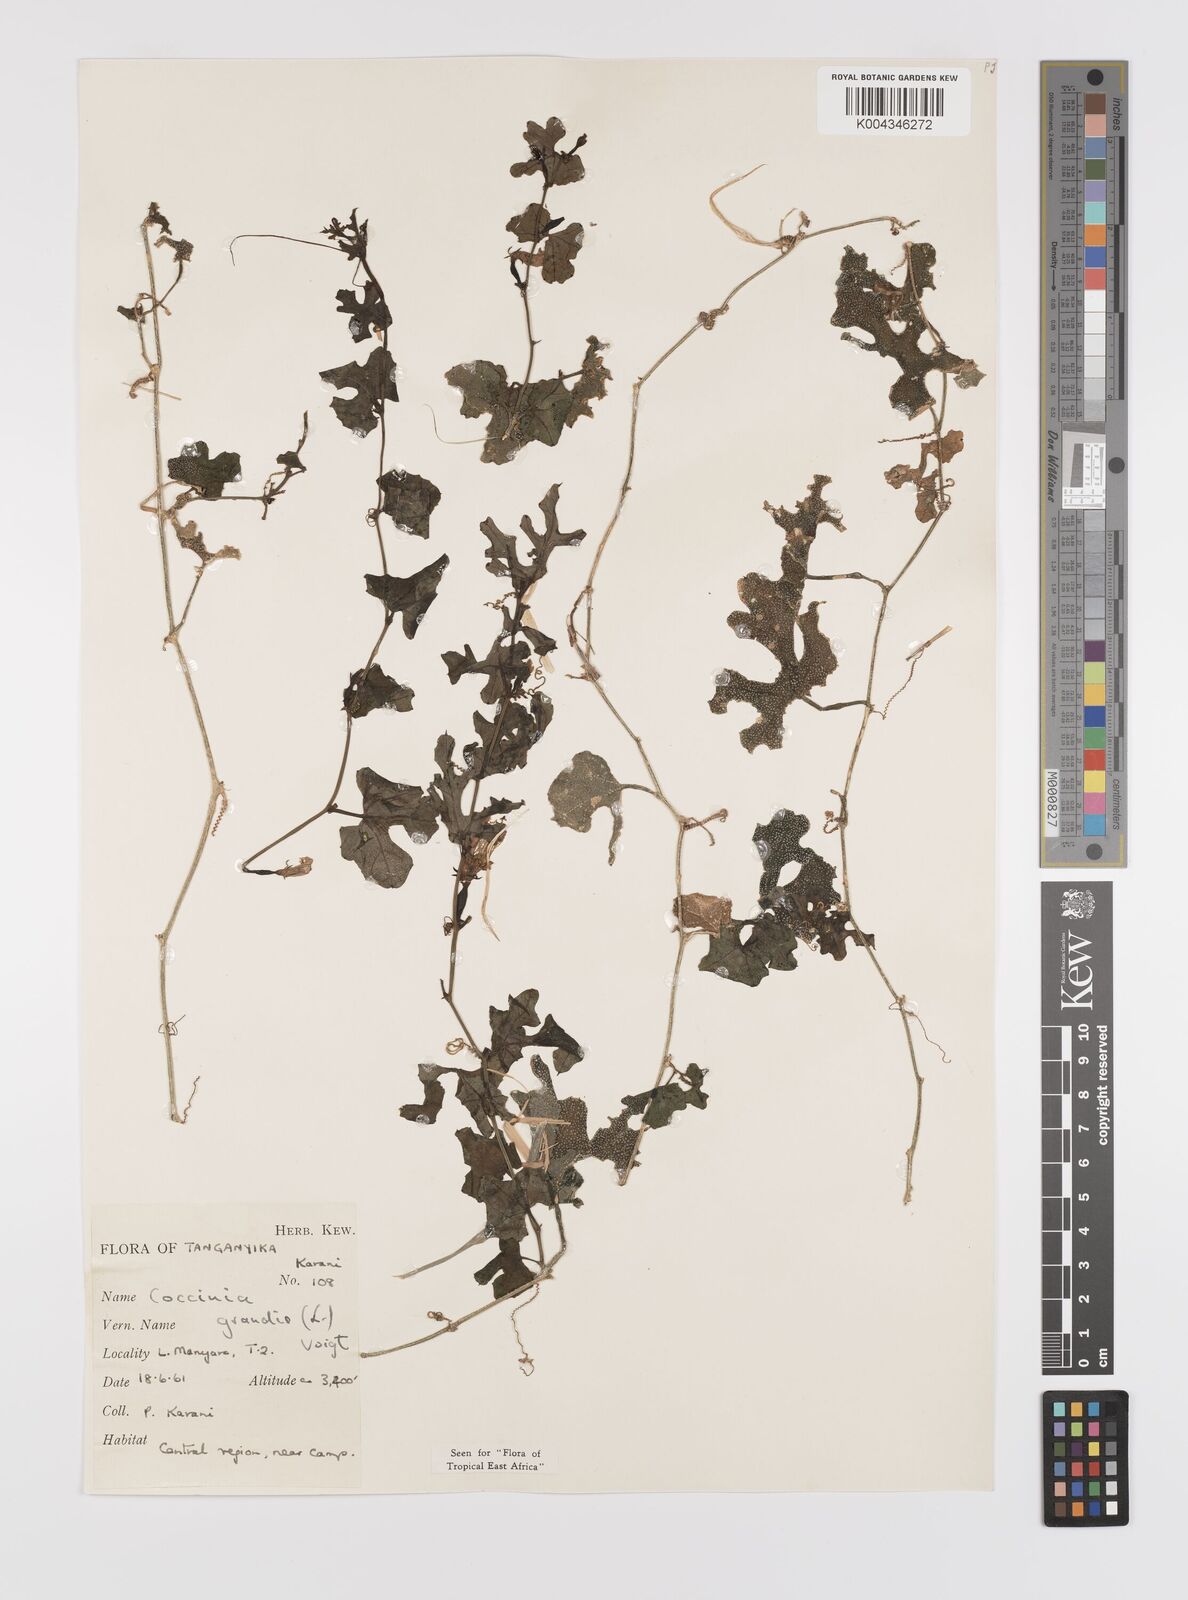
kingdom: Plantae
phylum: Tracheophyta
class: Magnoliopsida
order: Cucurbitales
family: Cucurbitaceae
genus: Coccinia
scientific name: Coccinia grandis
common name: Ivy gourd
